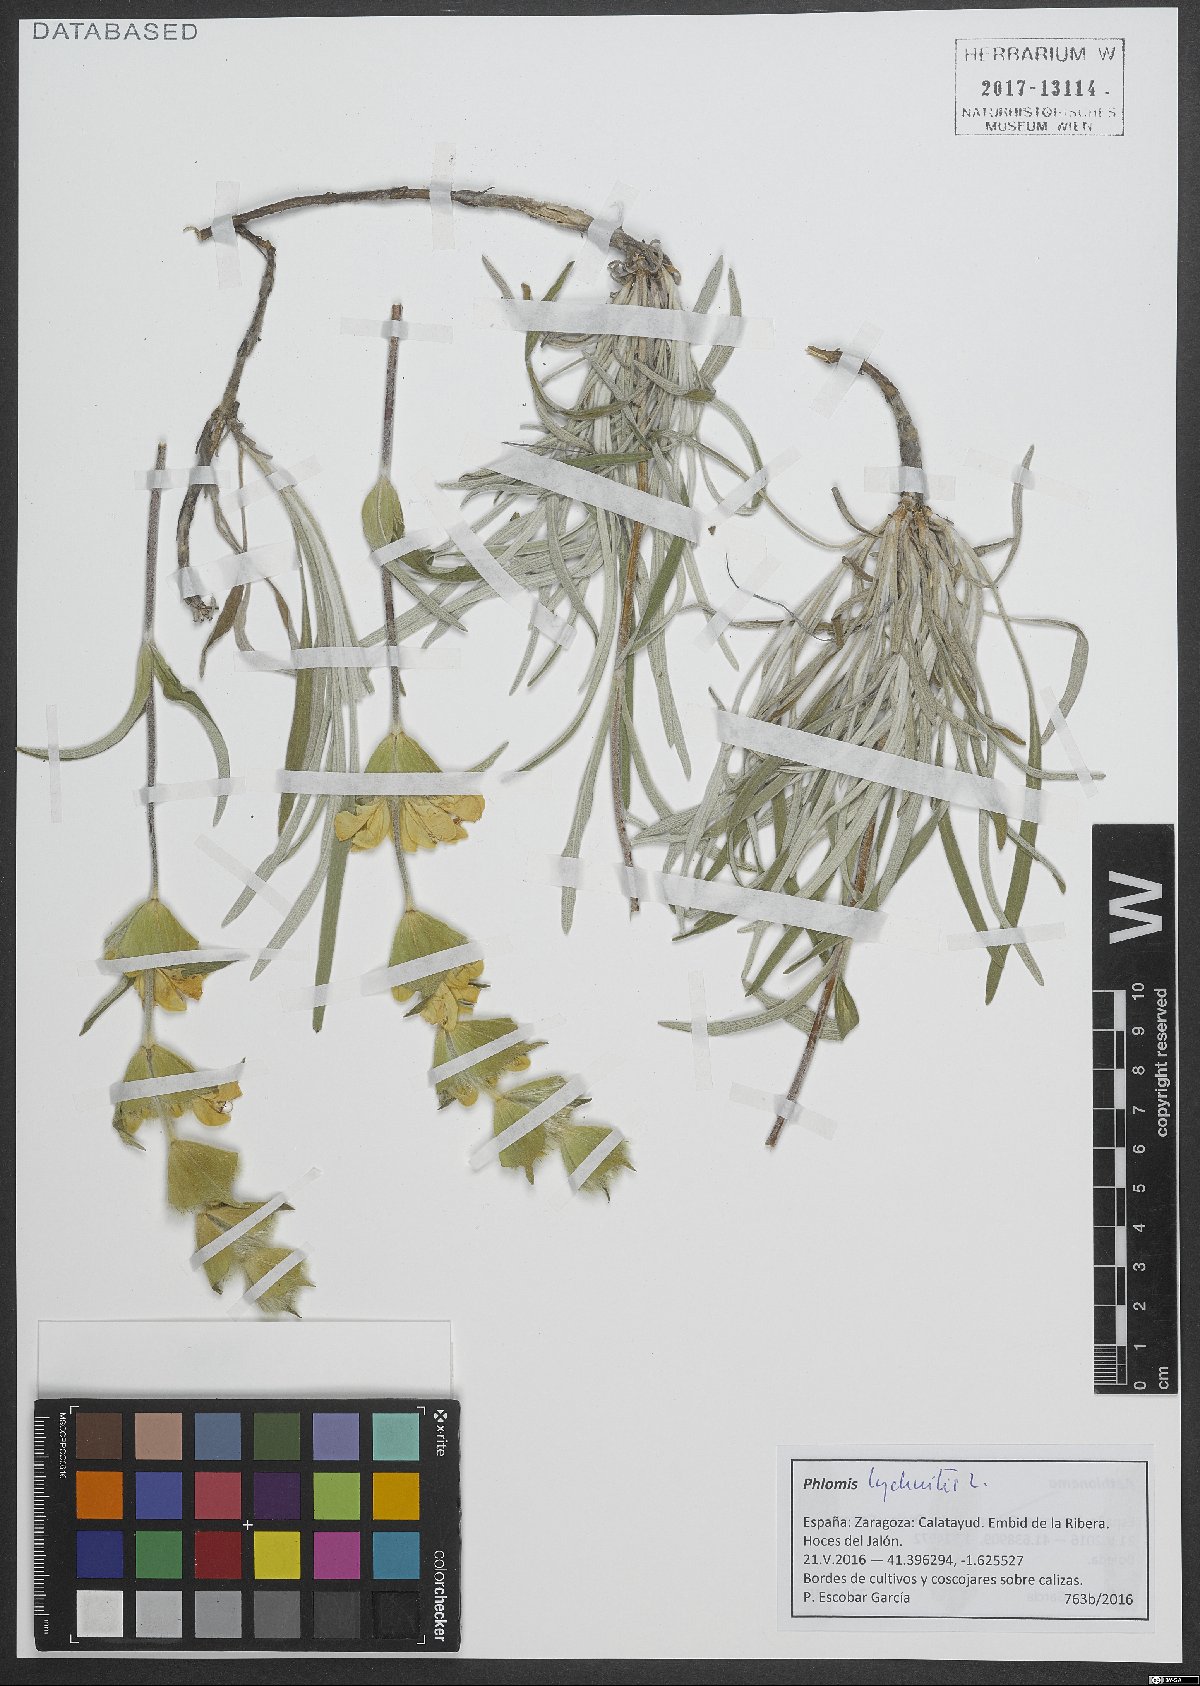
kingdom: Plantae
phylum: Tracheophyta
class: Magnoliopsida
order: Lamiales
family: Lamiaceae
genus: Phlomis
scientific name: Phlomis lychnitis
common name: Lampwickplant
